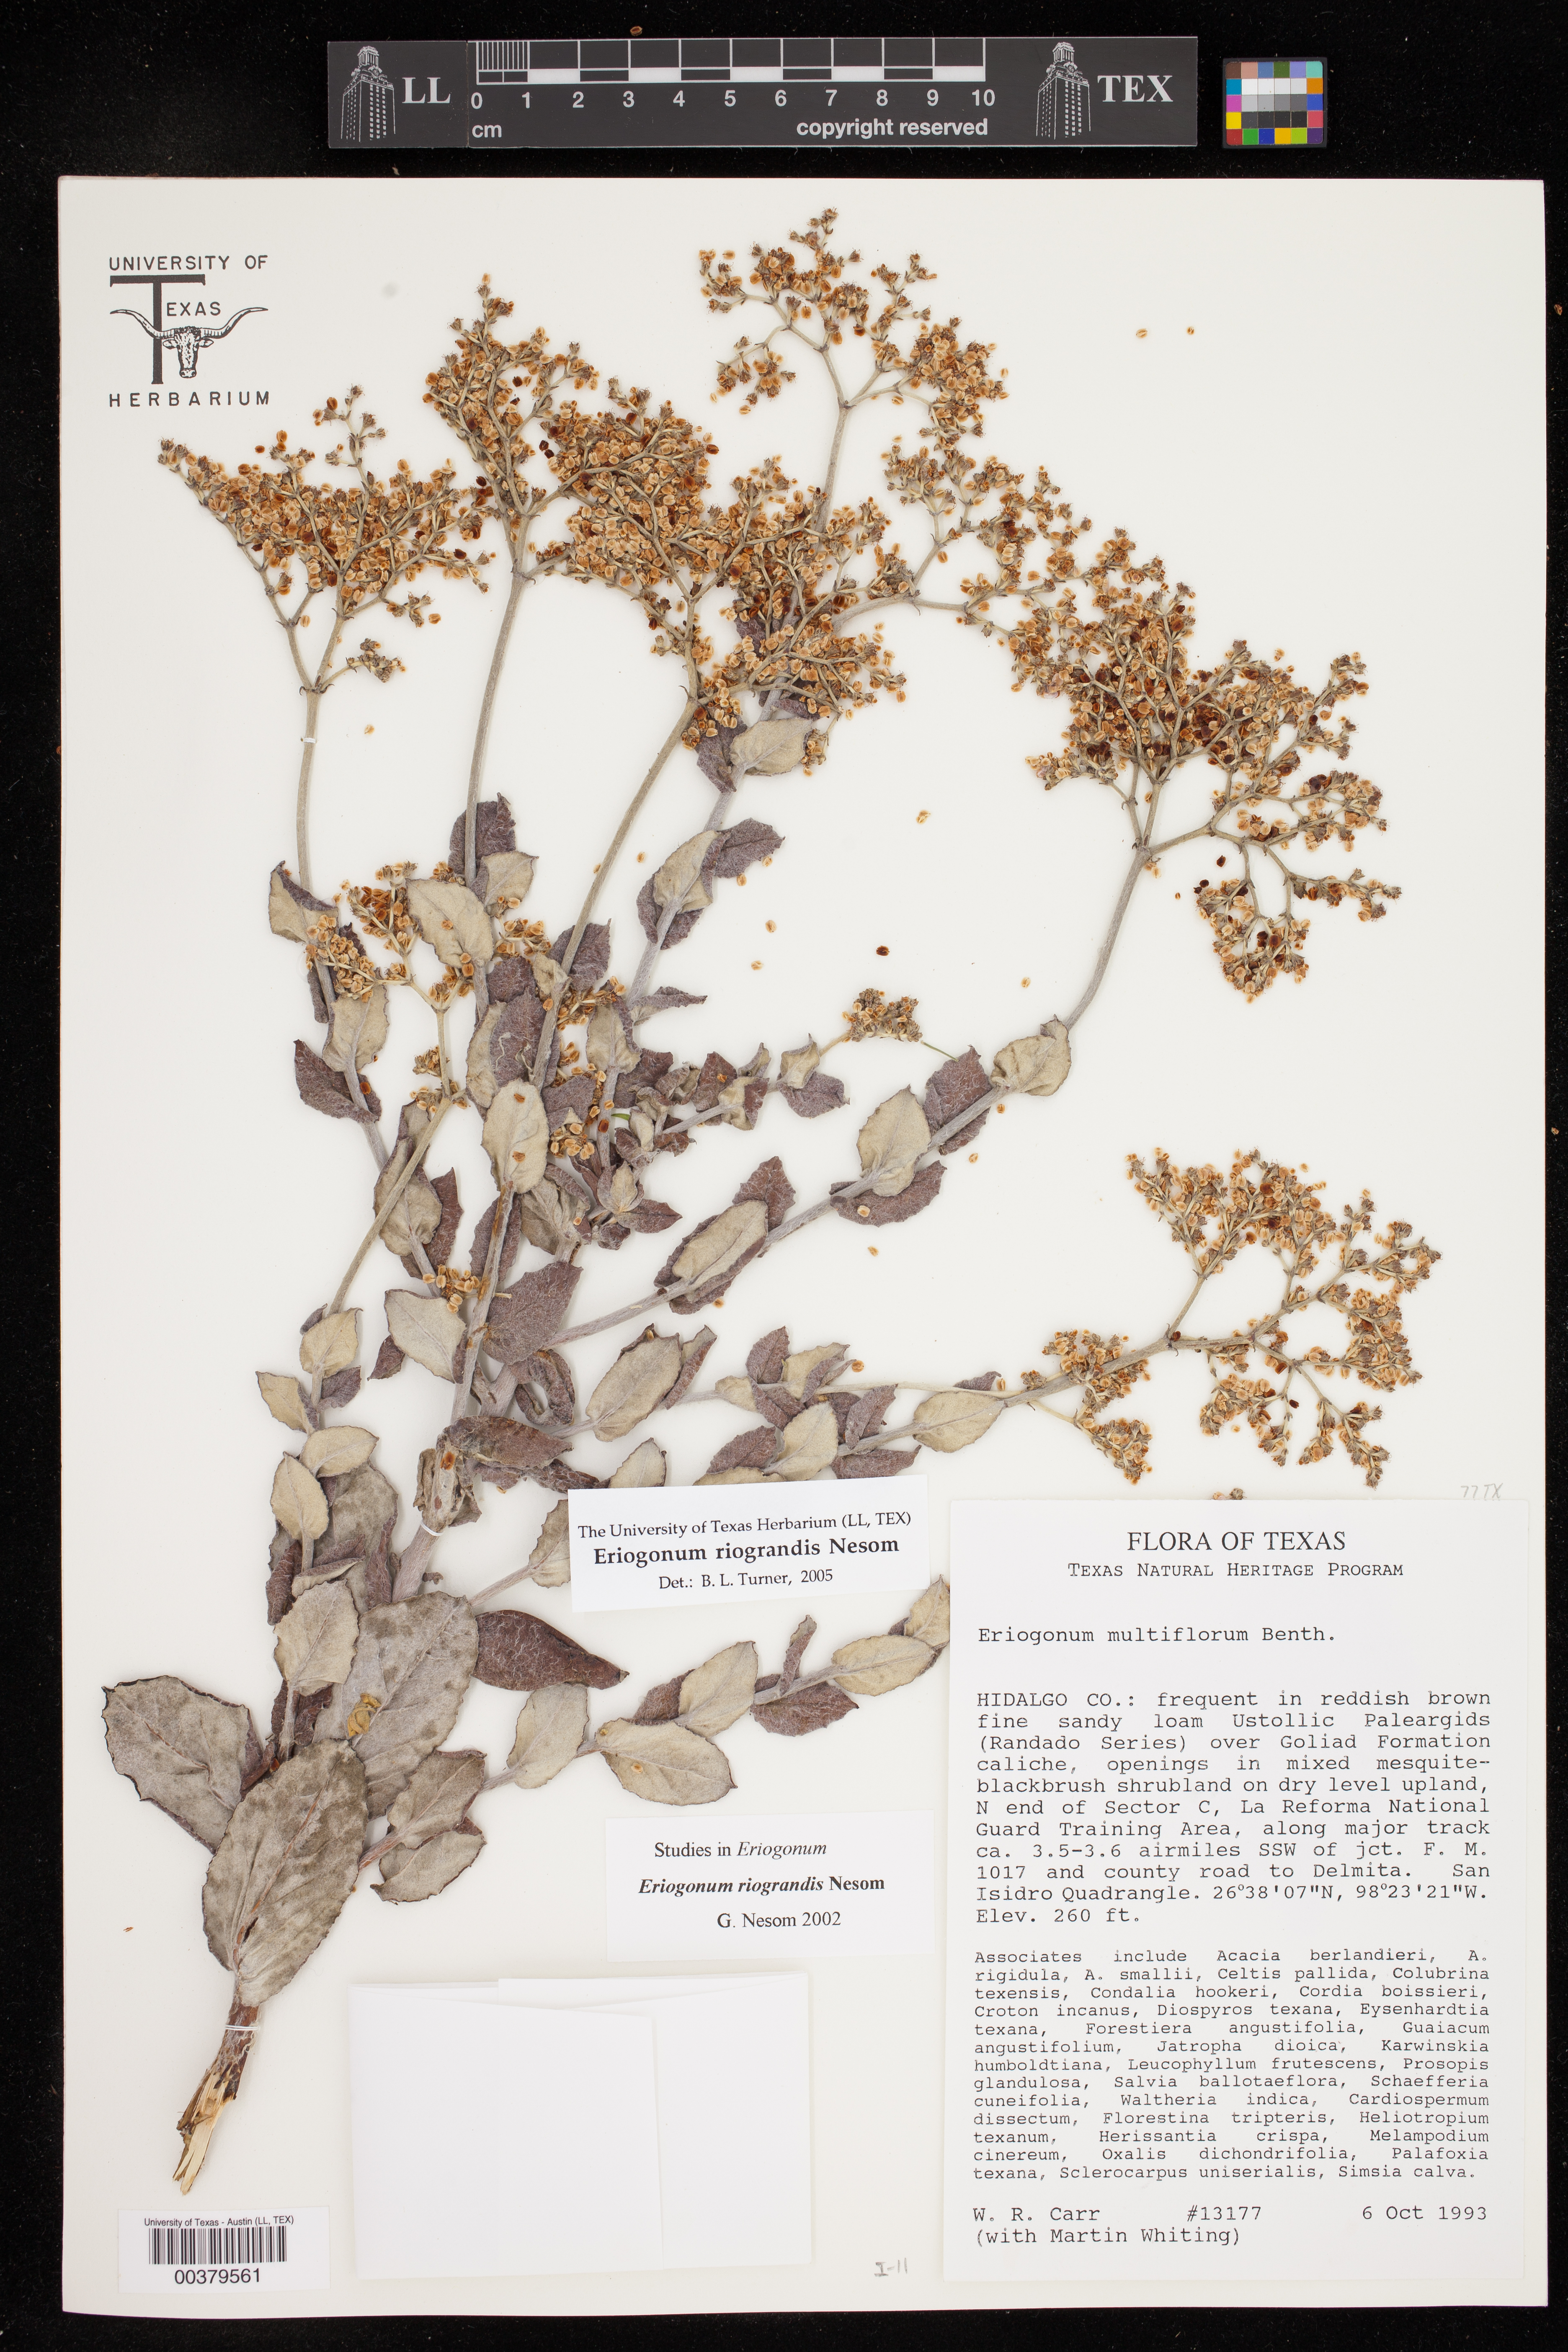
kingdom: Plantae
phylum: Tracheophyta
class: Magnoliopsida
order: Caryophyllales
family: Polygonaceae
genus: Eriogonum
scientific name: Eriogonum multiflorum
